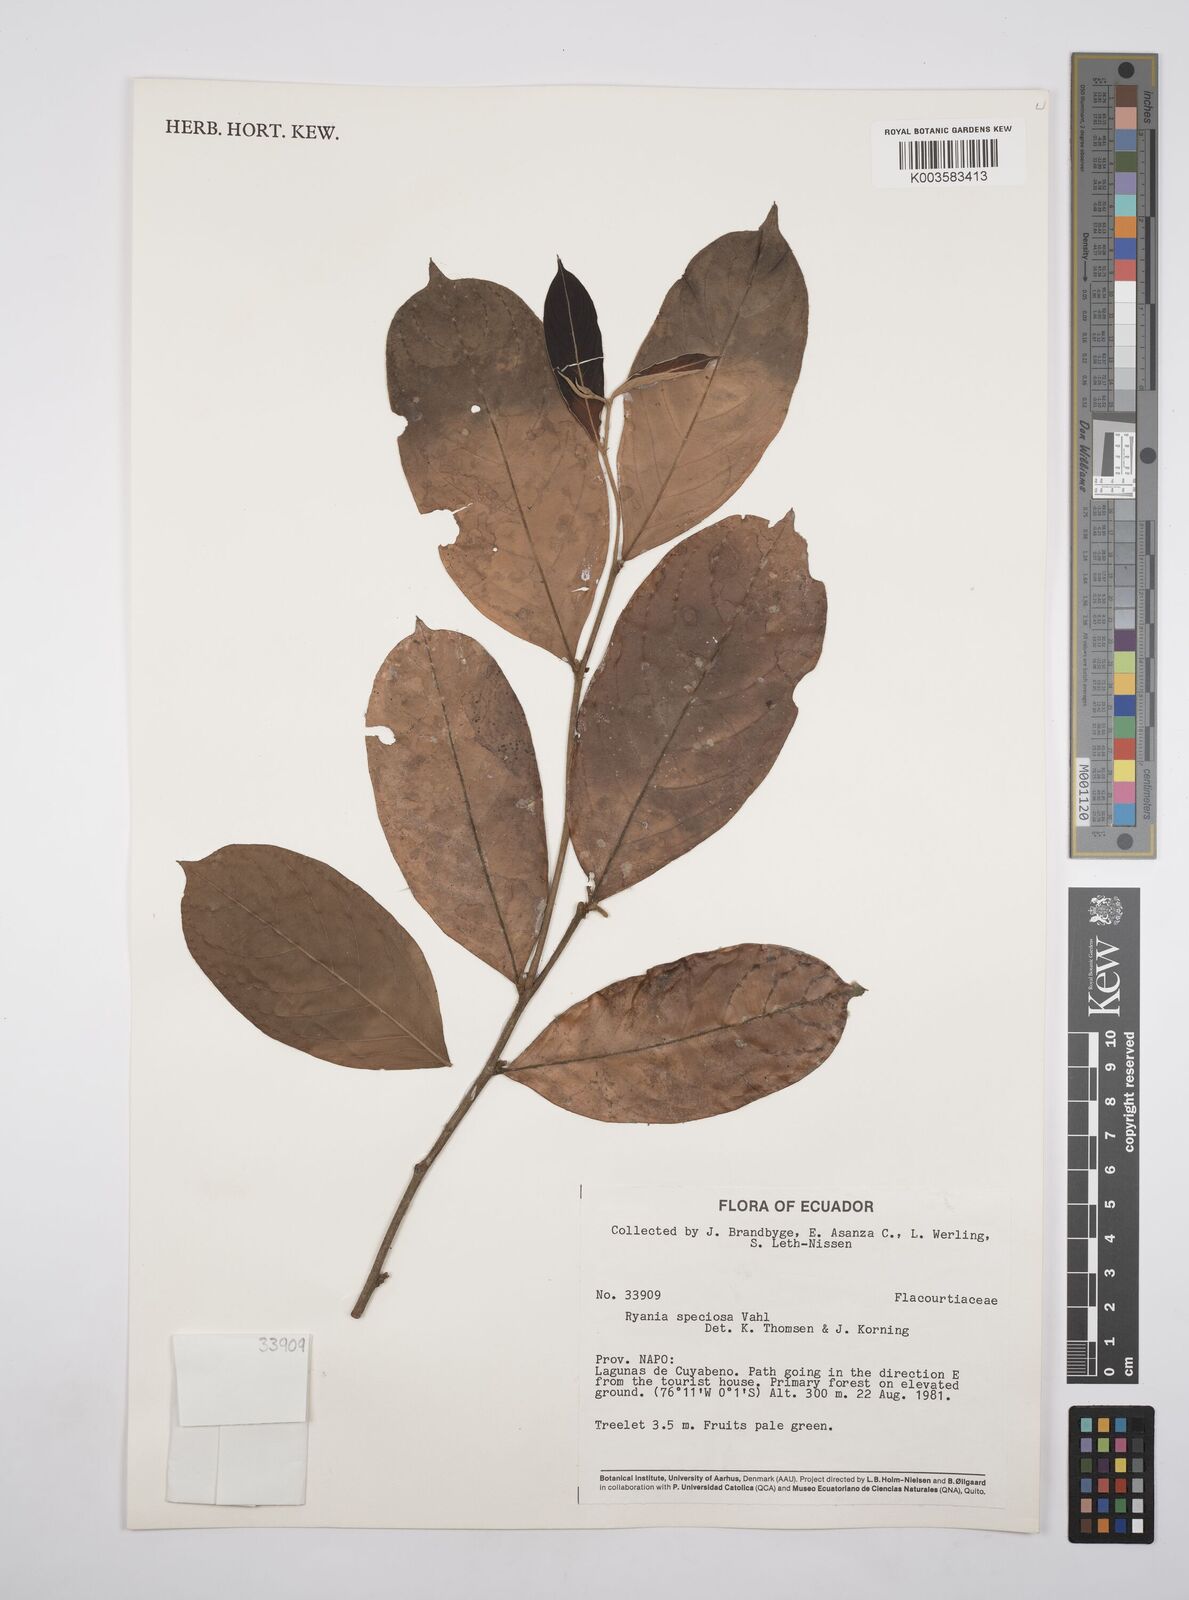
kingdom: Plantae
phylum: Tracheophyta
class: Magnoliopsida
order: Malpighiales
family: Salicaceae
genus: Ryania
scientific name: Ryania speciosa
